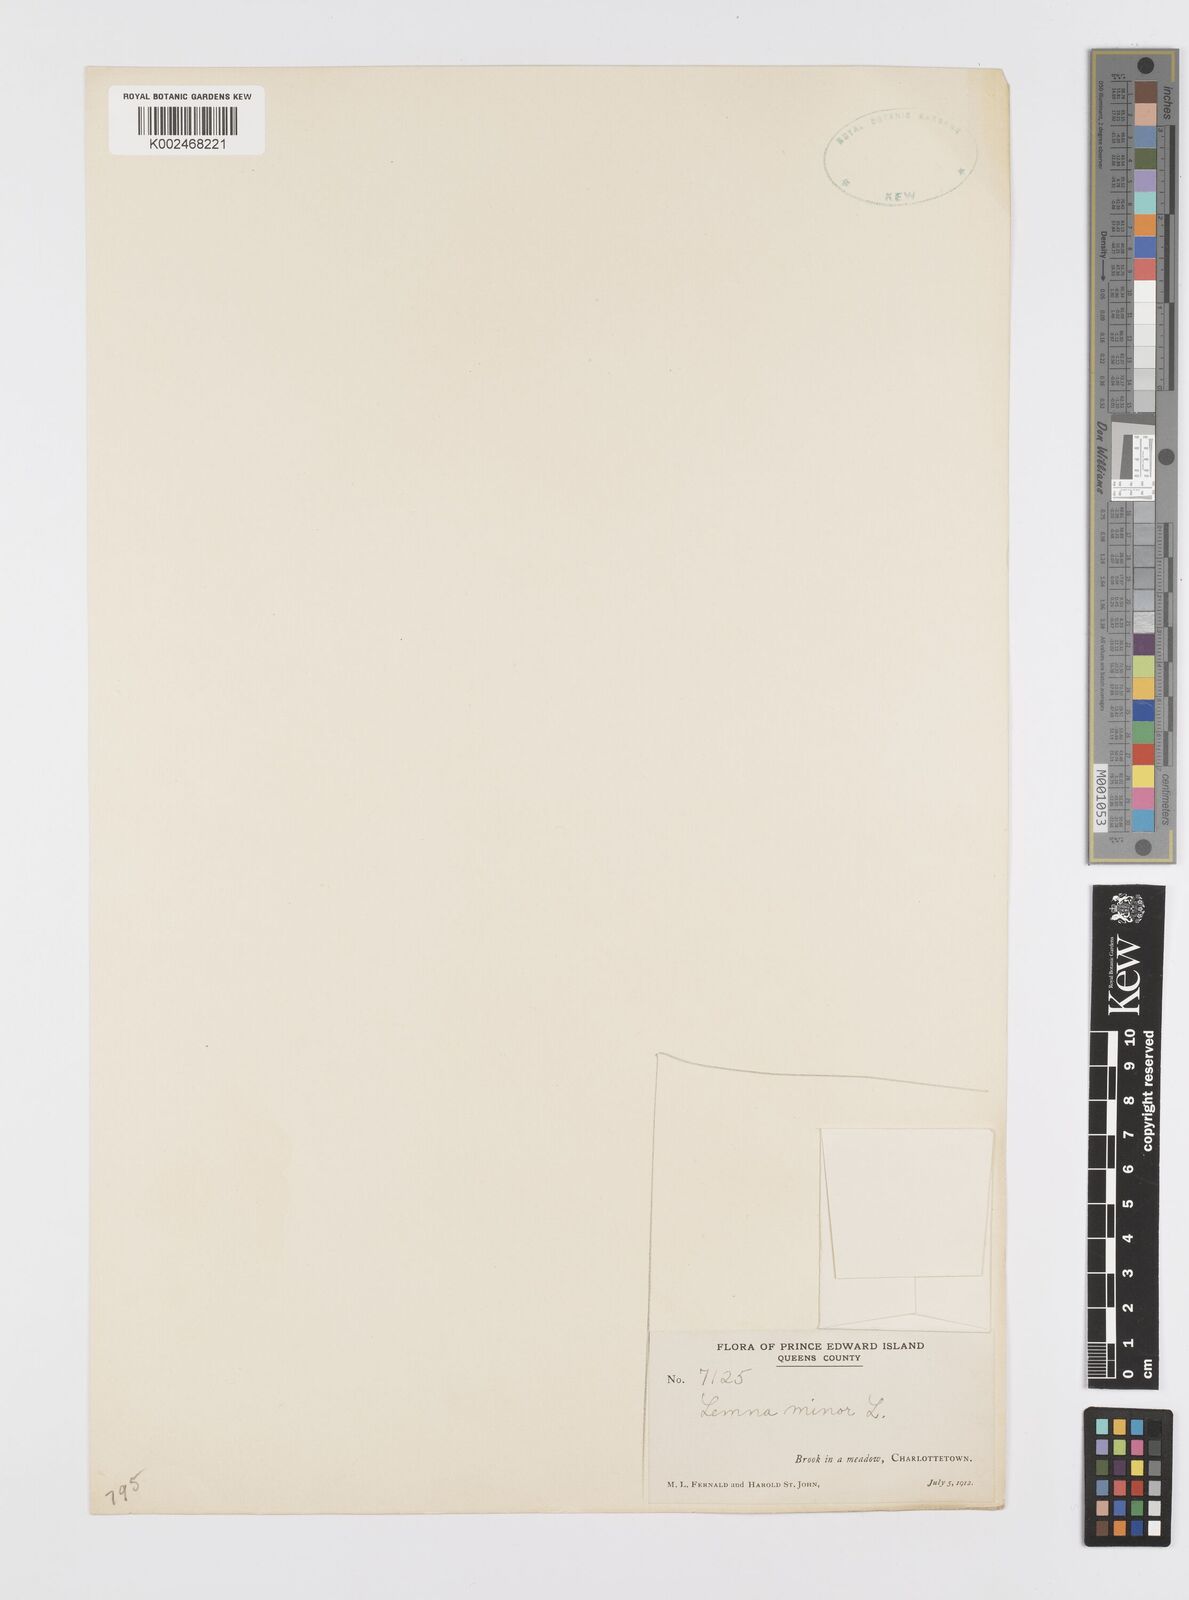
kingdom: Plantae
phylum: Tracheophyta
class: Liliopsida
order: Alismatales
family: Araceae
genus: Lemna
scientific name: Lemna minor
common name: Common duckweed
